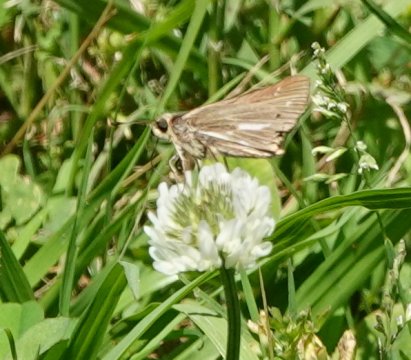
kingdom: Animalia
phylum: Arthropoda
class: Insecta
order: Lepidoptera
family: Hesperiidae
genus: Panoquina
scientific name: Panoquina panoquin
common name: Salt Marsh Skipper
